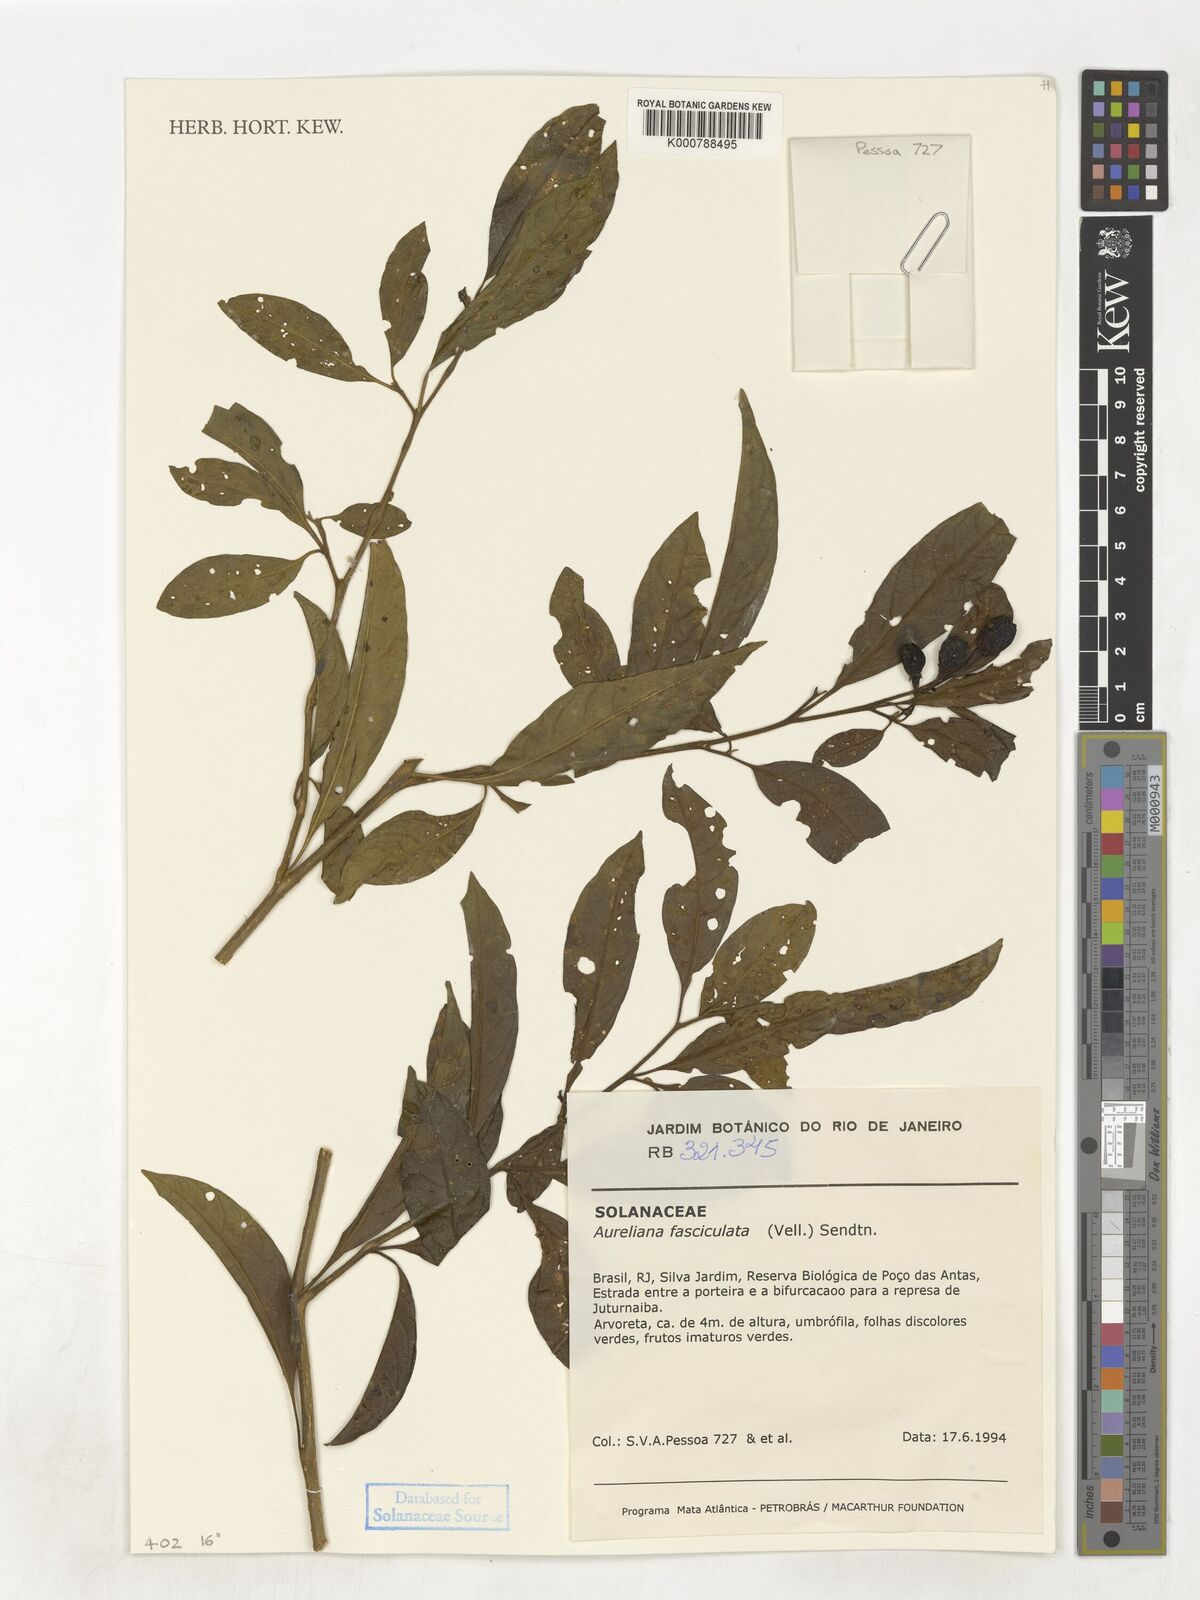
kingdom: Plantae
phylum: Tracheophyta
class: Magnoliopsida
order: Solanales
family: Solanaceae
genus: Athenaea
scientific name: Athenaea fasciculata
